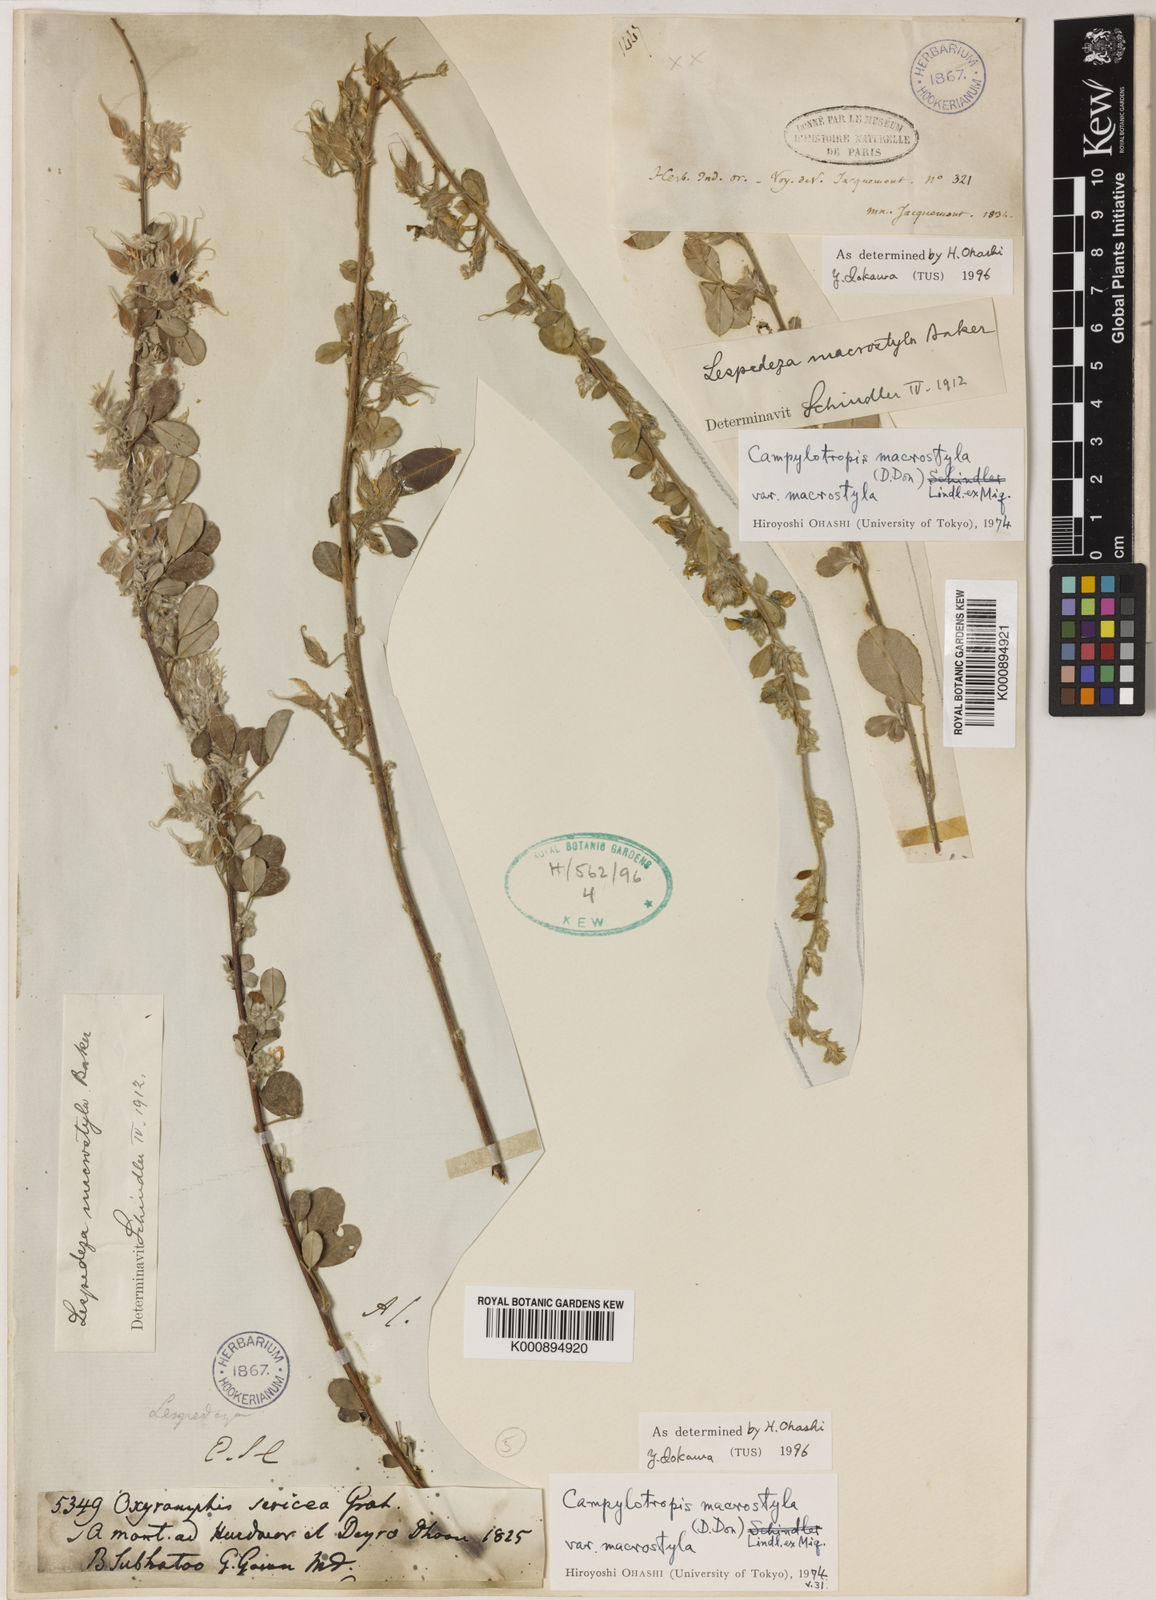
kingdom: Plantae
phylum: Tracheophyta
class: Magnoliopsida
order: Fabales
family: Fabaceae
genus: Campylotropis
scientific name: Campylotropis macrostyla
